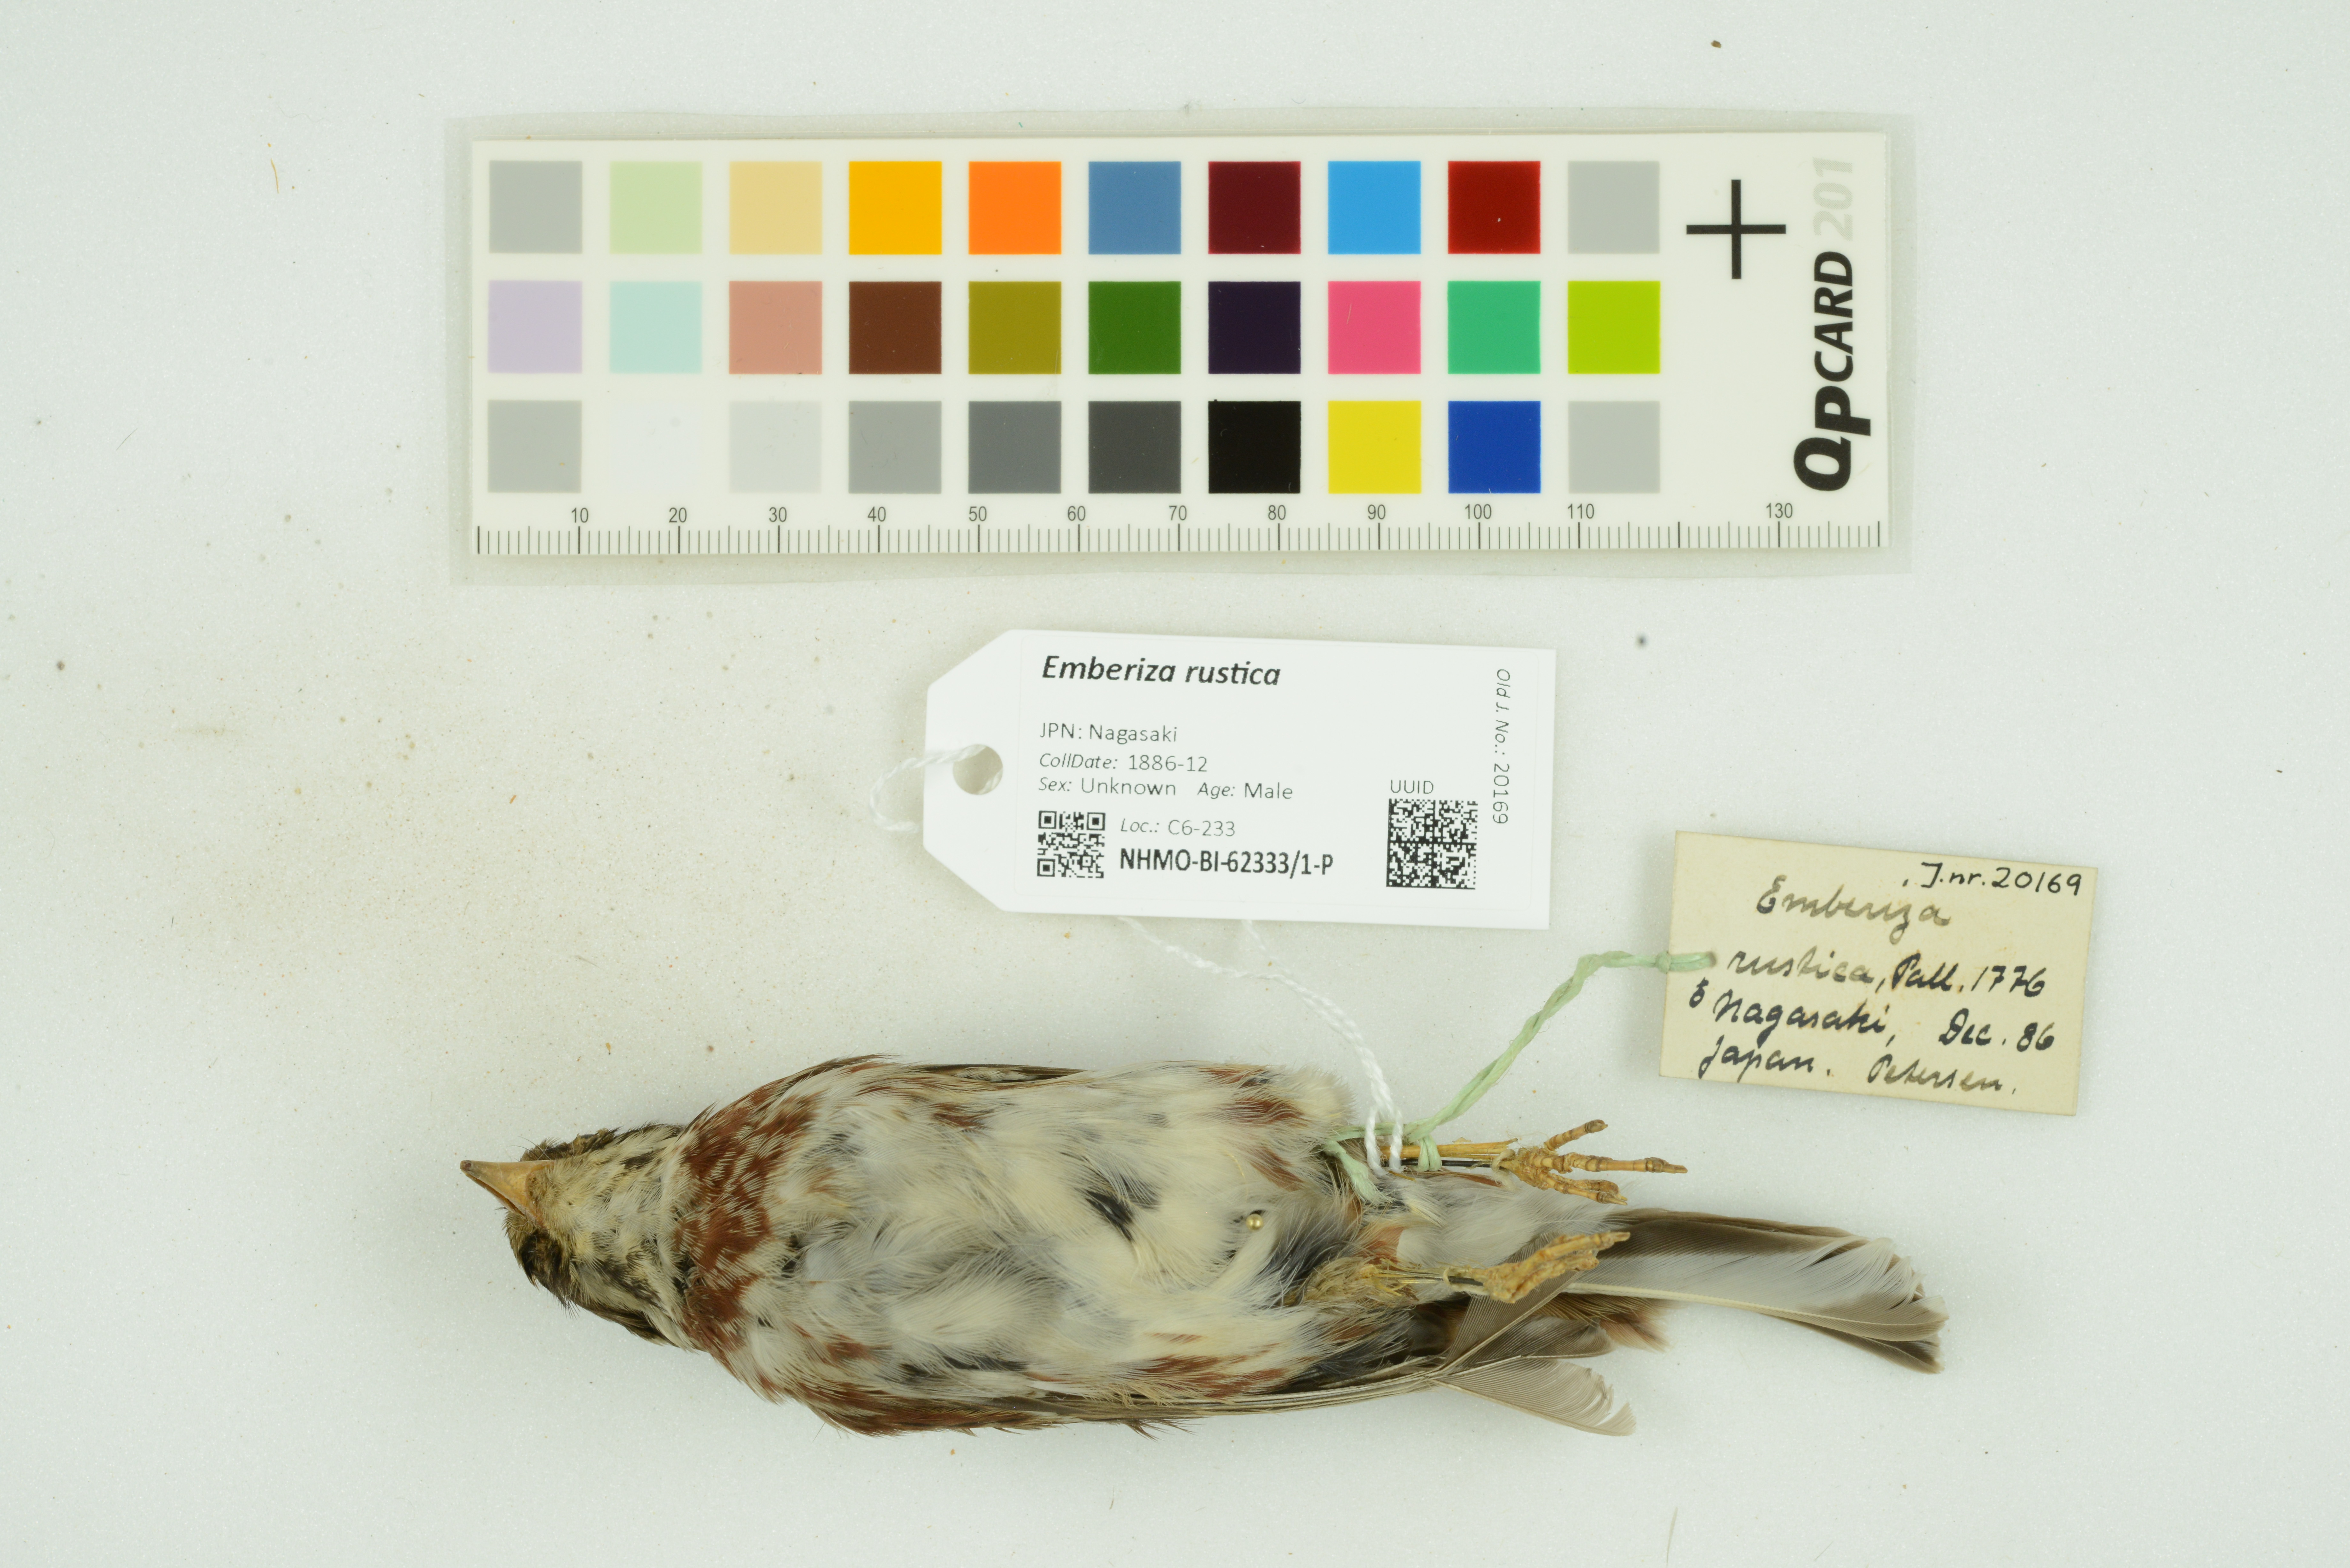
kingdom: Animalia
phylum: Chordata
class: Aves
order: Passeriformes
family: Emberizidae
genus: Emberiza
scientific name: Emberiza rustica
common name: Rustic bunting
